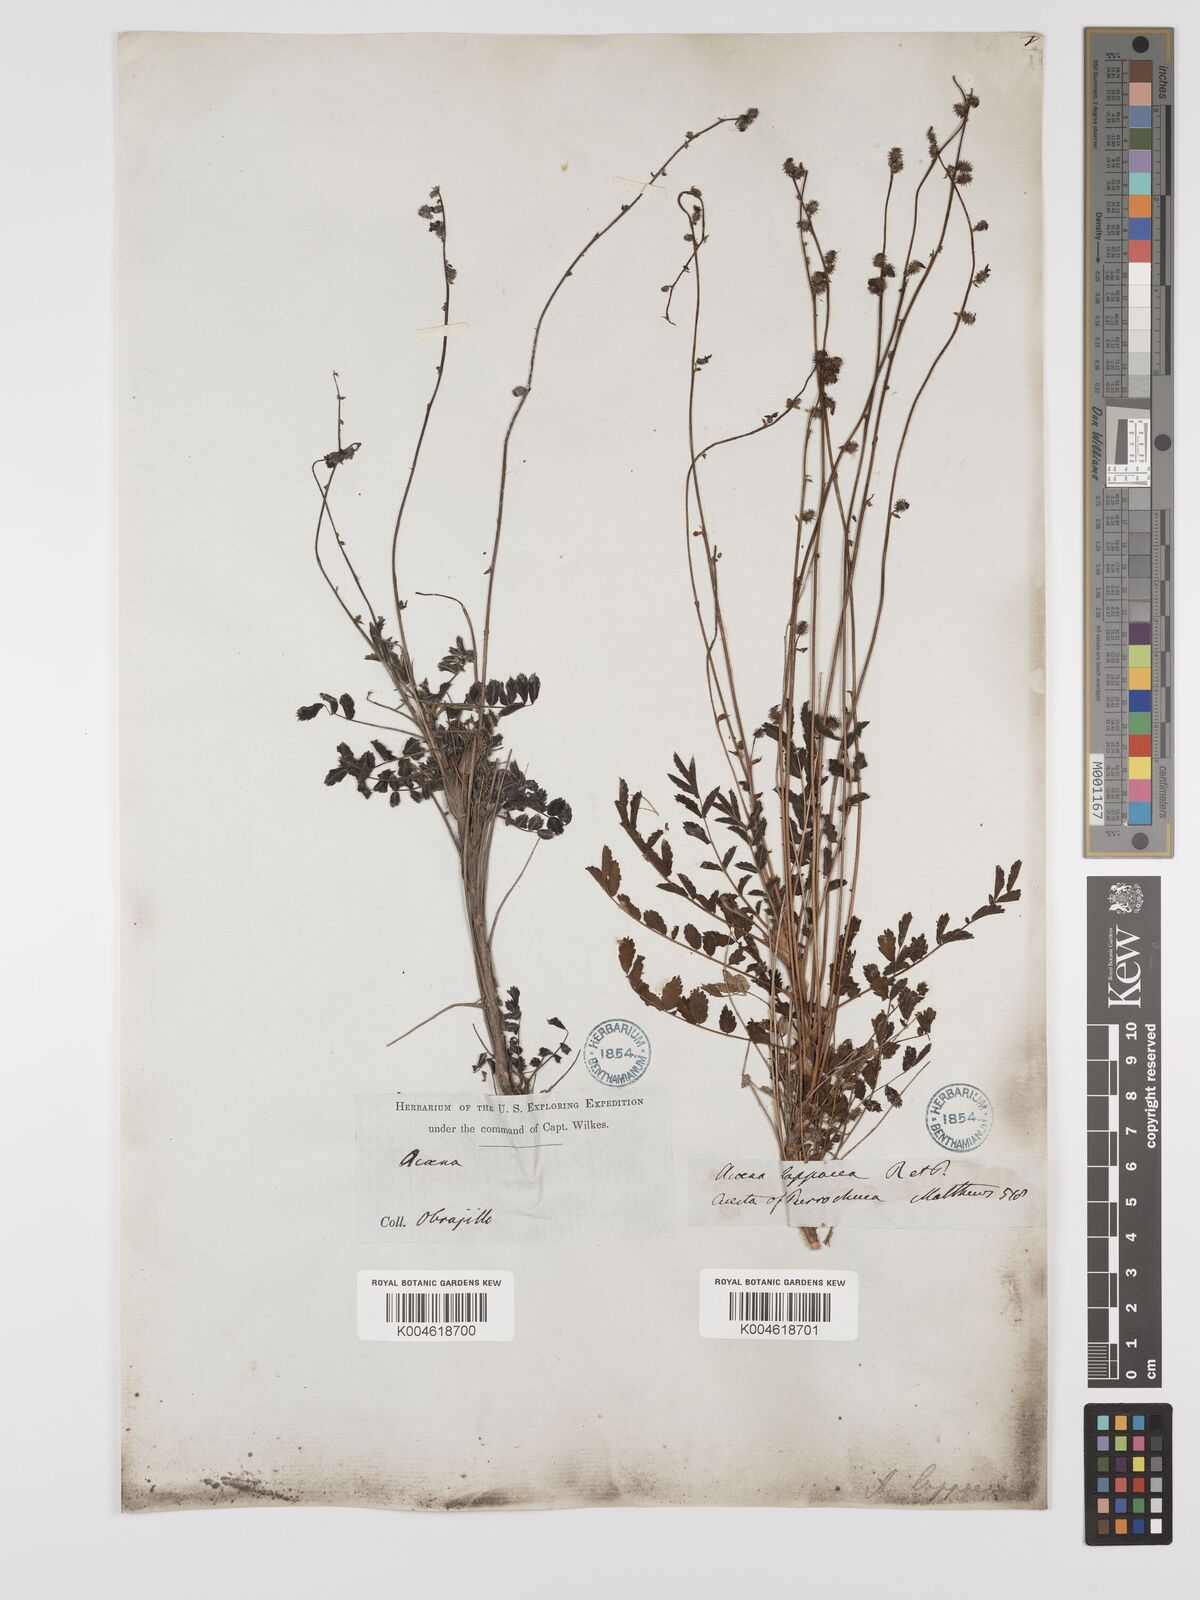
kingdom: Plantae
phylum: Tracheophyta
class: Magnoliopsida
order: Rosales
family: Rosaceae
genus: Acaena
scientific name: Acaena torilicarpa
